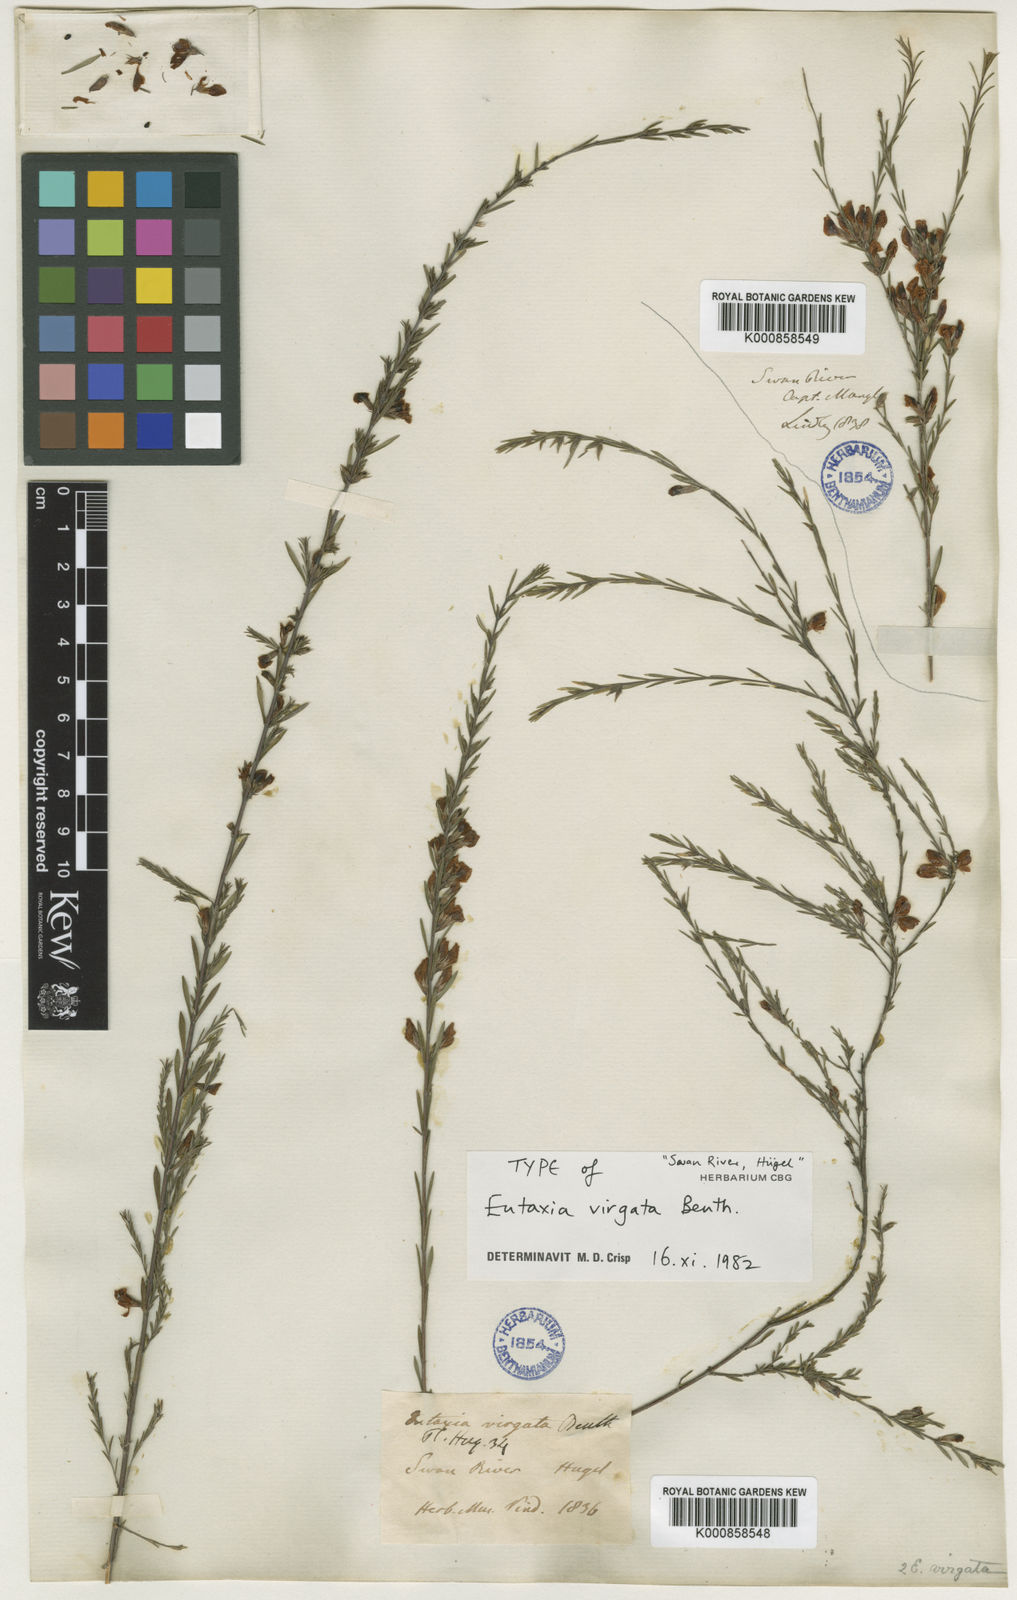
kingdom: Plantae
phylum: Tracheophyta
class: Magnoliopsida
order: Fabales
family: Fabaceae
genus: Eutaxia
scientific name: Eutaxia virgata
